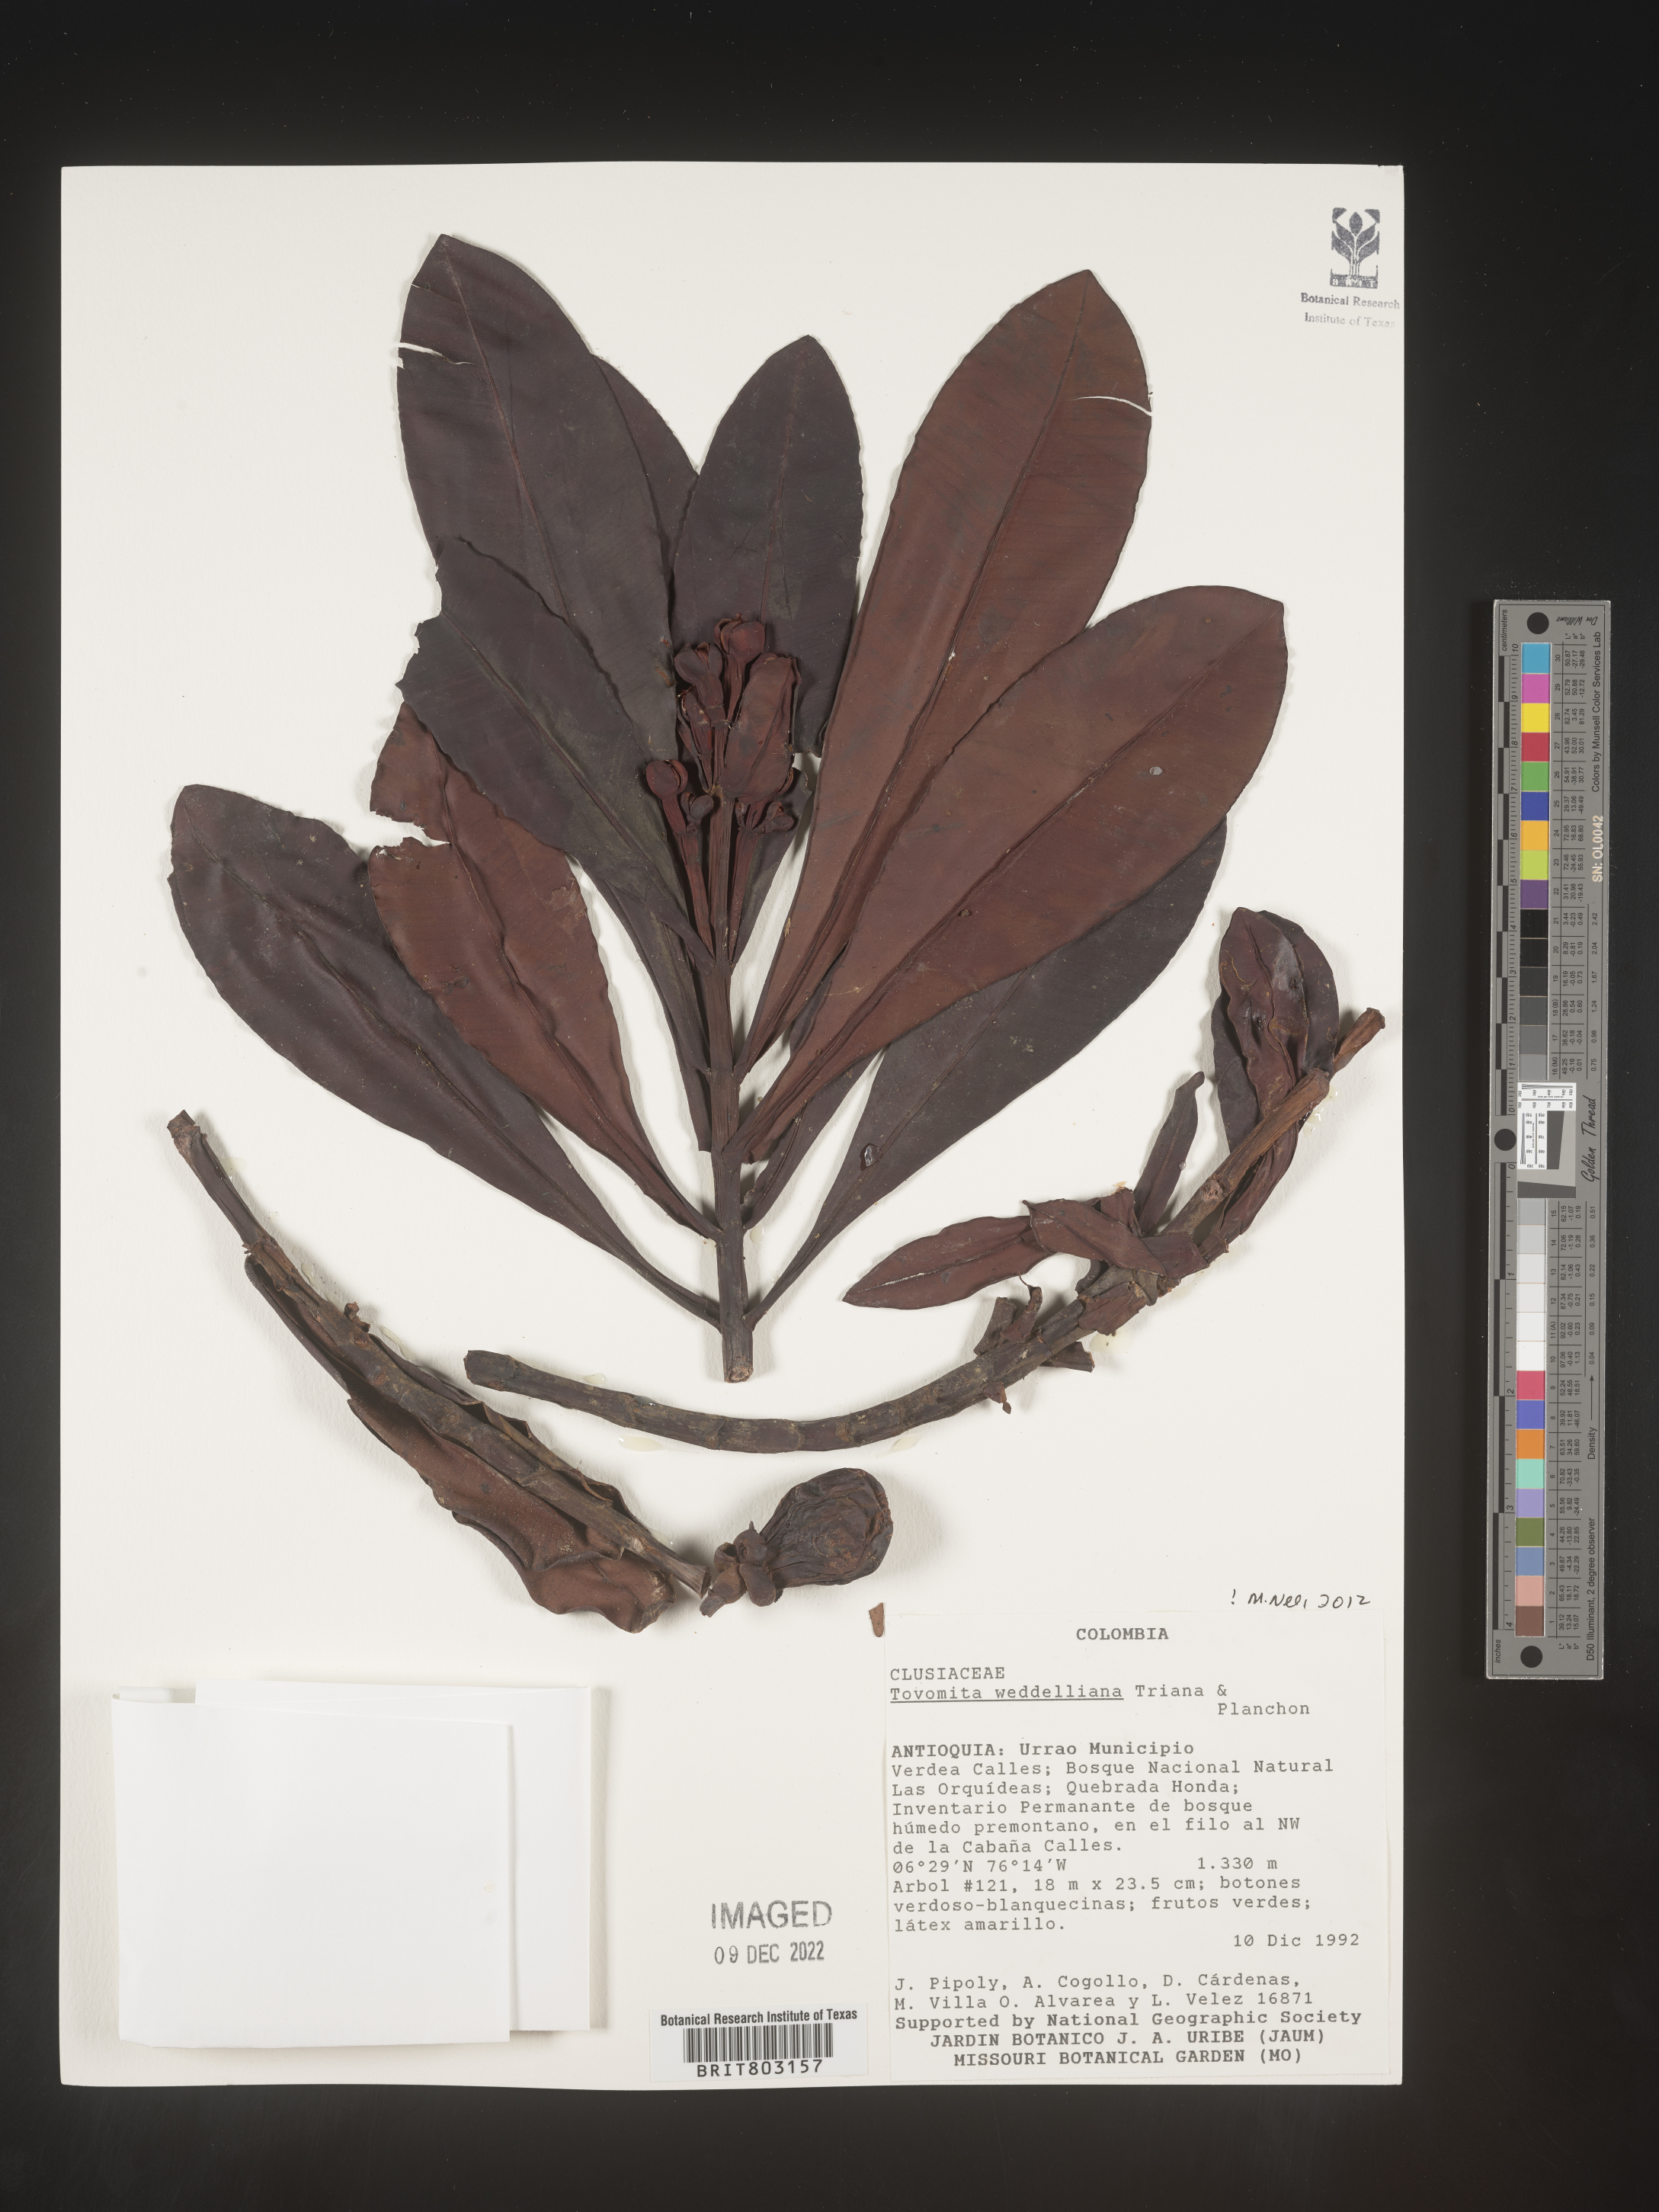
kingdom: Plantae
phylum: Tracheophyta
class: Magnoliopsida
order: Malpighiales
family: Clusiaceae
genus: Arawakia
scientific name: Arawakia weddelliana
